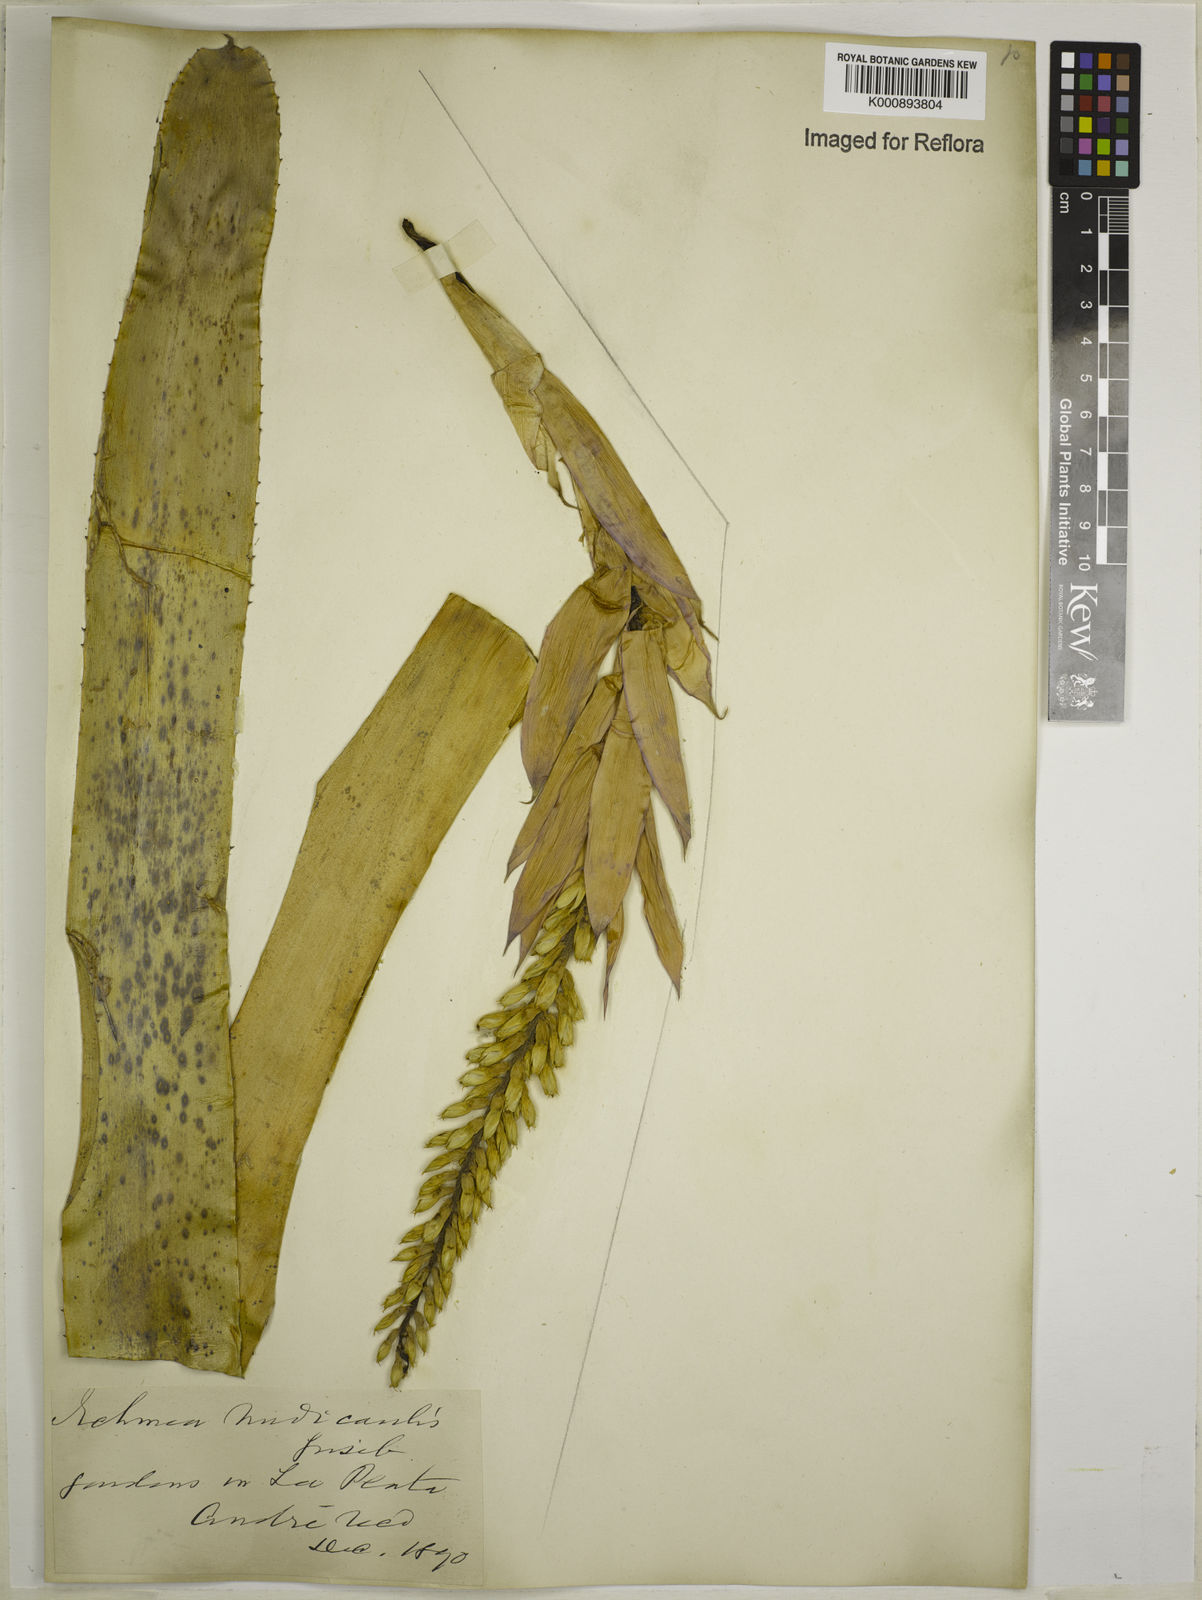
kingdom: Plantae
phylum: Tracheophyta
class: Liliopsida
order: Poales
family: Bromeliaceae
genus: Aechmea
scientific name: Aechmea nudicaulis
